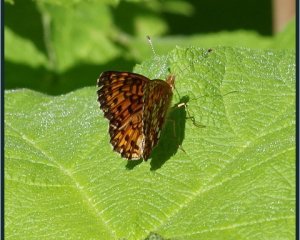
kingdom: Animalia
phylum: Arthropoda
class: Insecta
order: Lepidoptera
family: Nymphalidae
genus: Boloria
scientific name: Boloria selene
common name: Silver-bordered Fritillary
